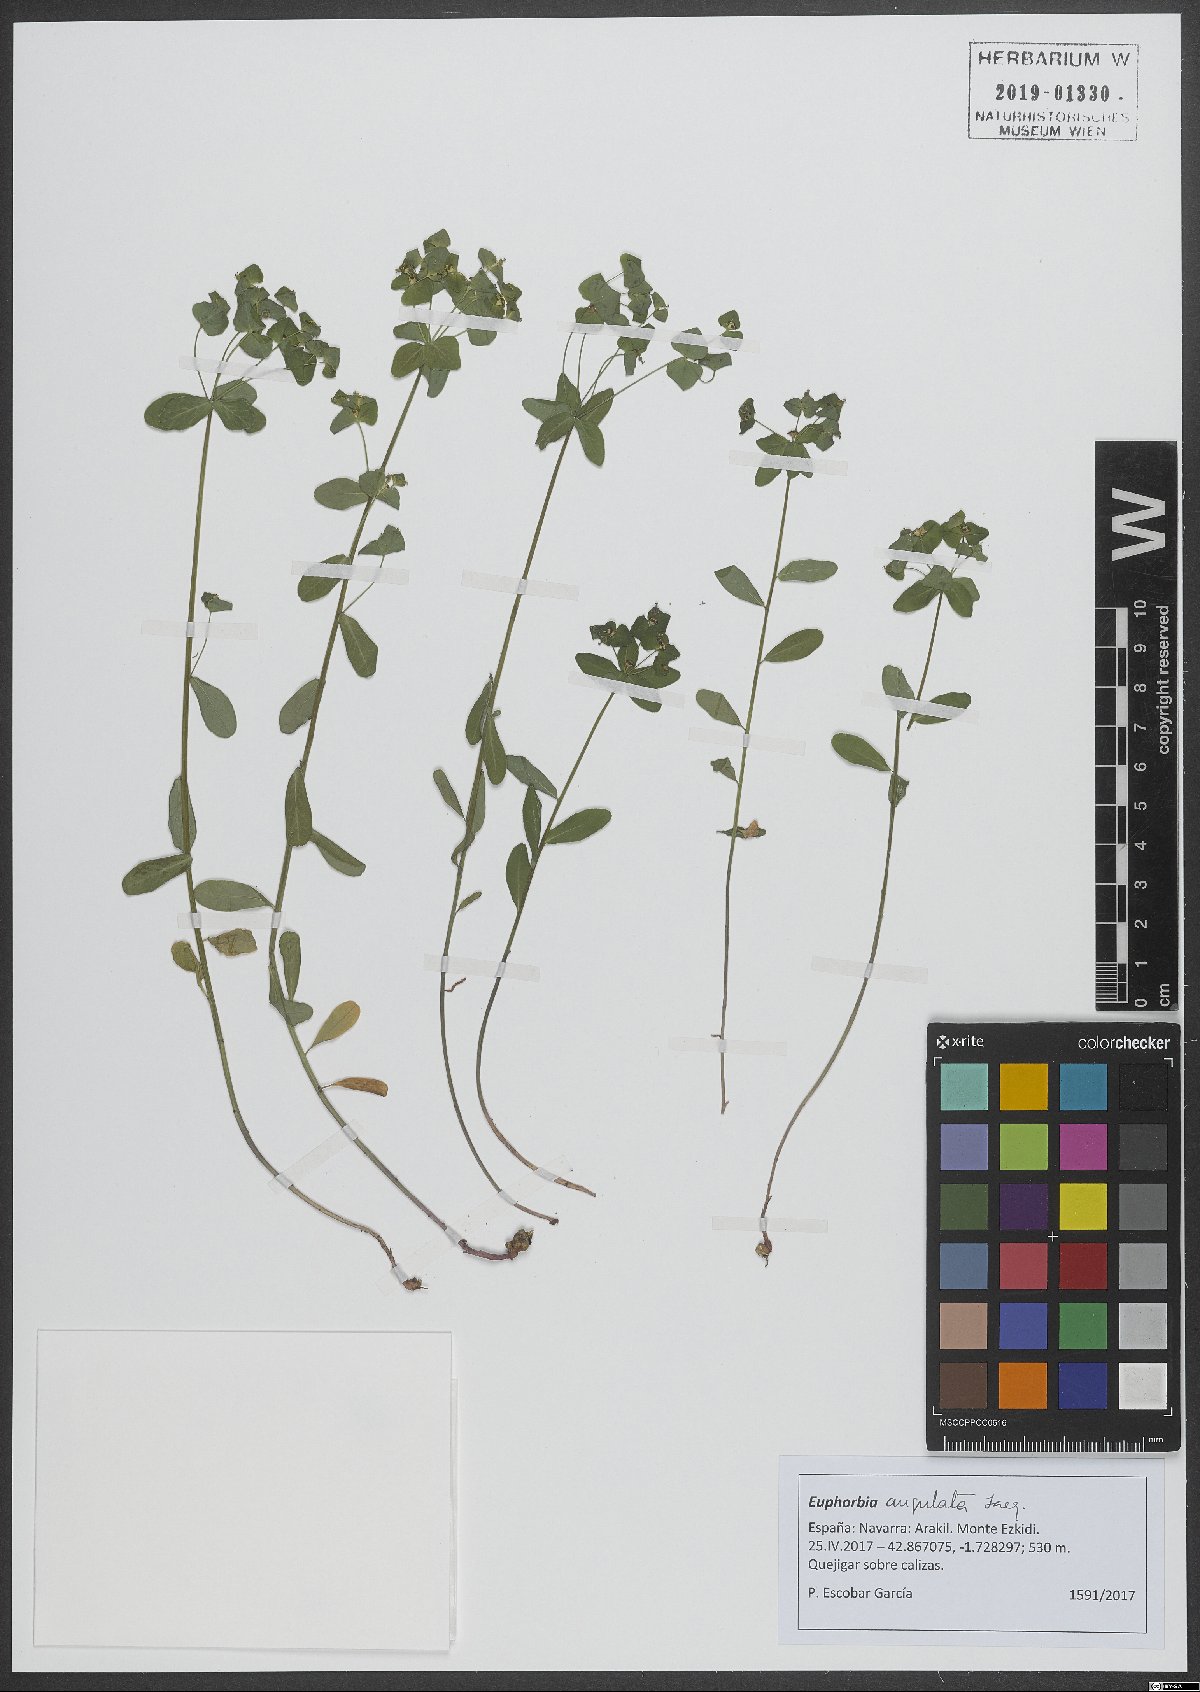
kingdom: Plantae
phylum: Tracheophyta
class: Magnoliopsida
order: Malpighiales
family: Euphorbiaceae
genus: Euphorbia
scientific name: Euphorbia angulata
